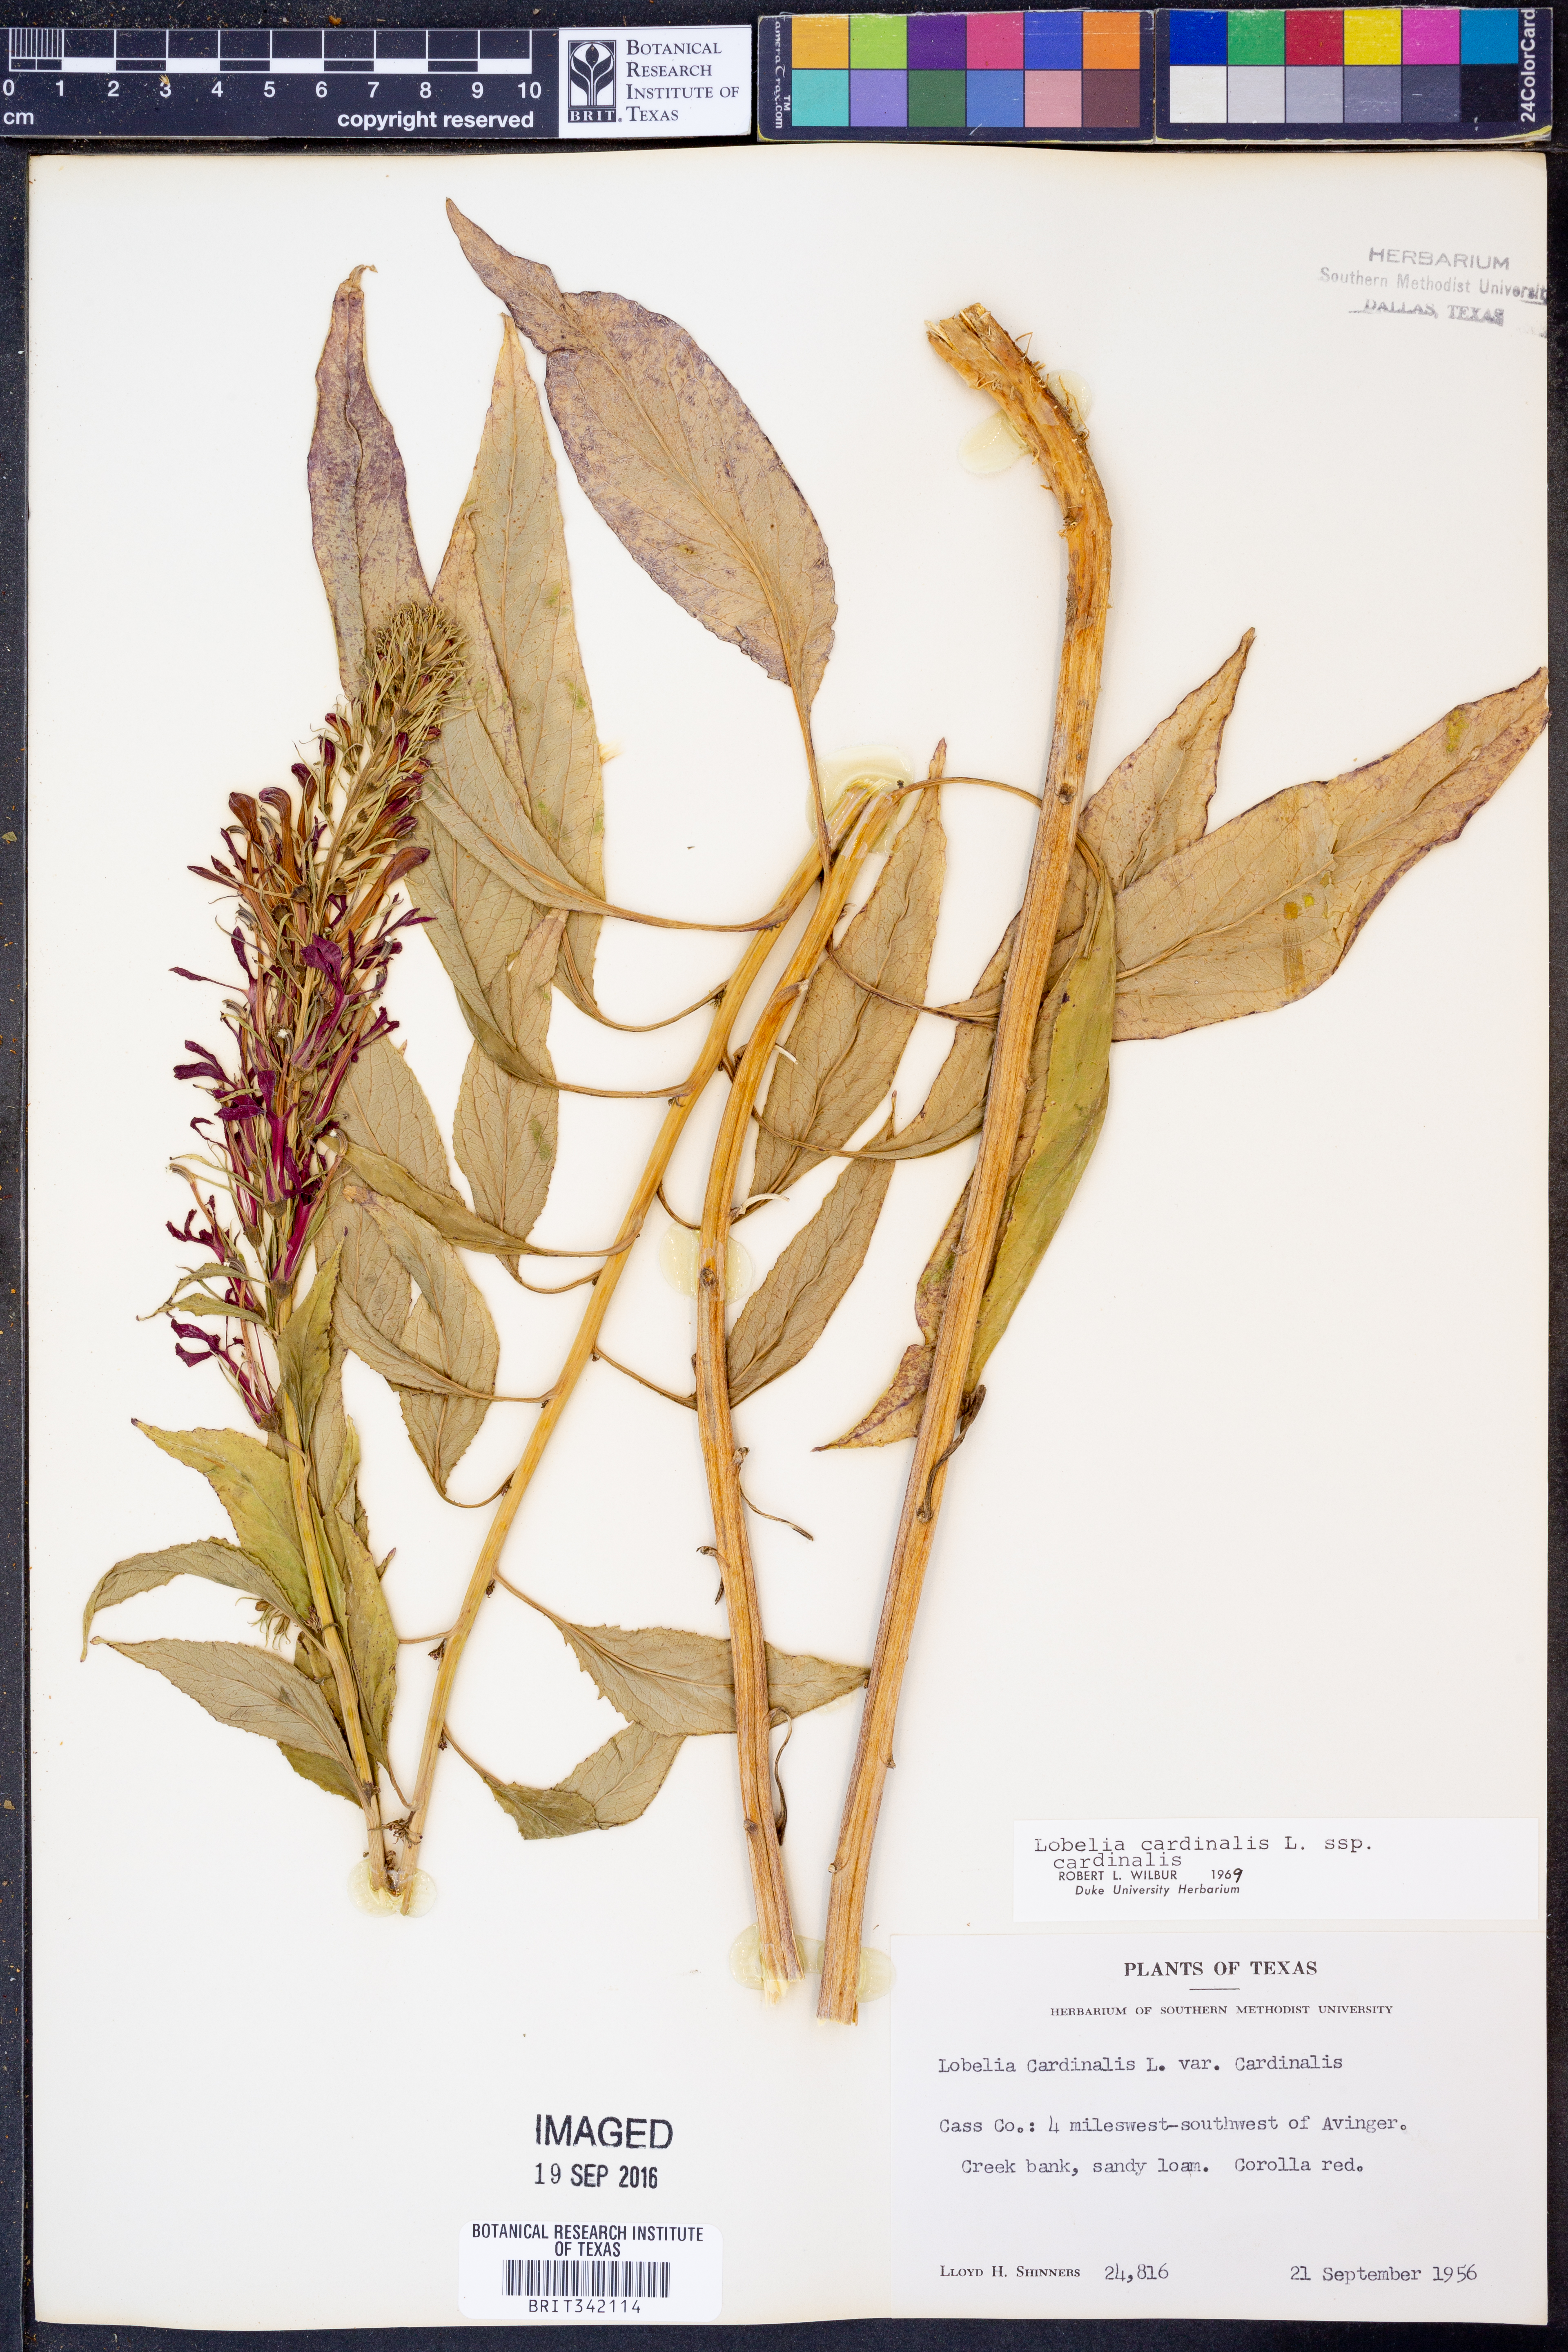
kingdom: Plantae
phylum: Tracheophyta
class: Magnoliopsida
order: Asterales
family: Campanulaceae
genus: Lobelia
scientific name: Lobelia cardinalis
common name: Cardinal flower
